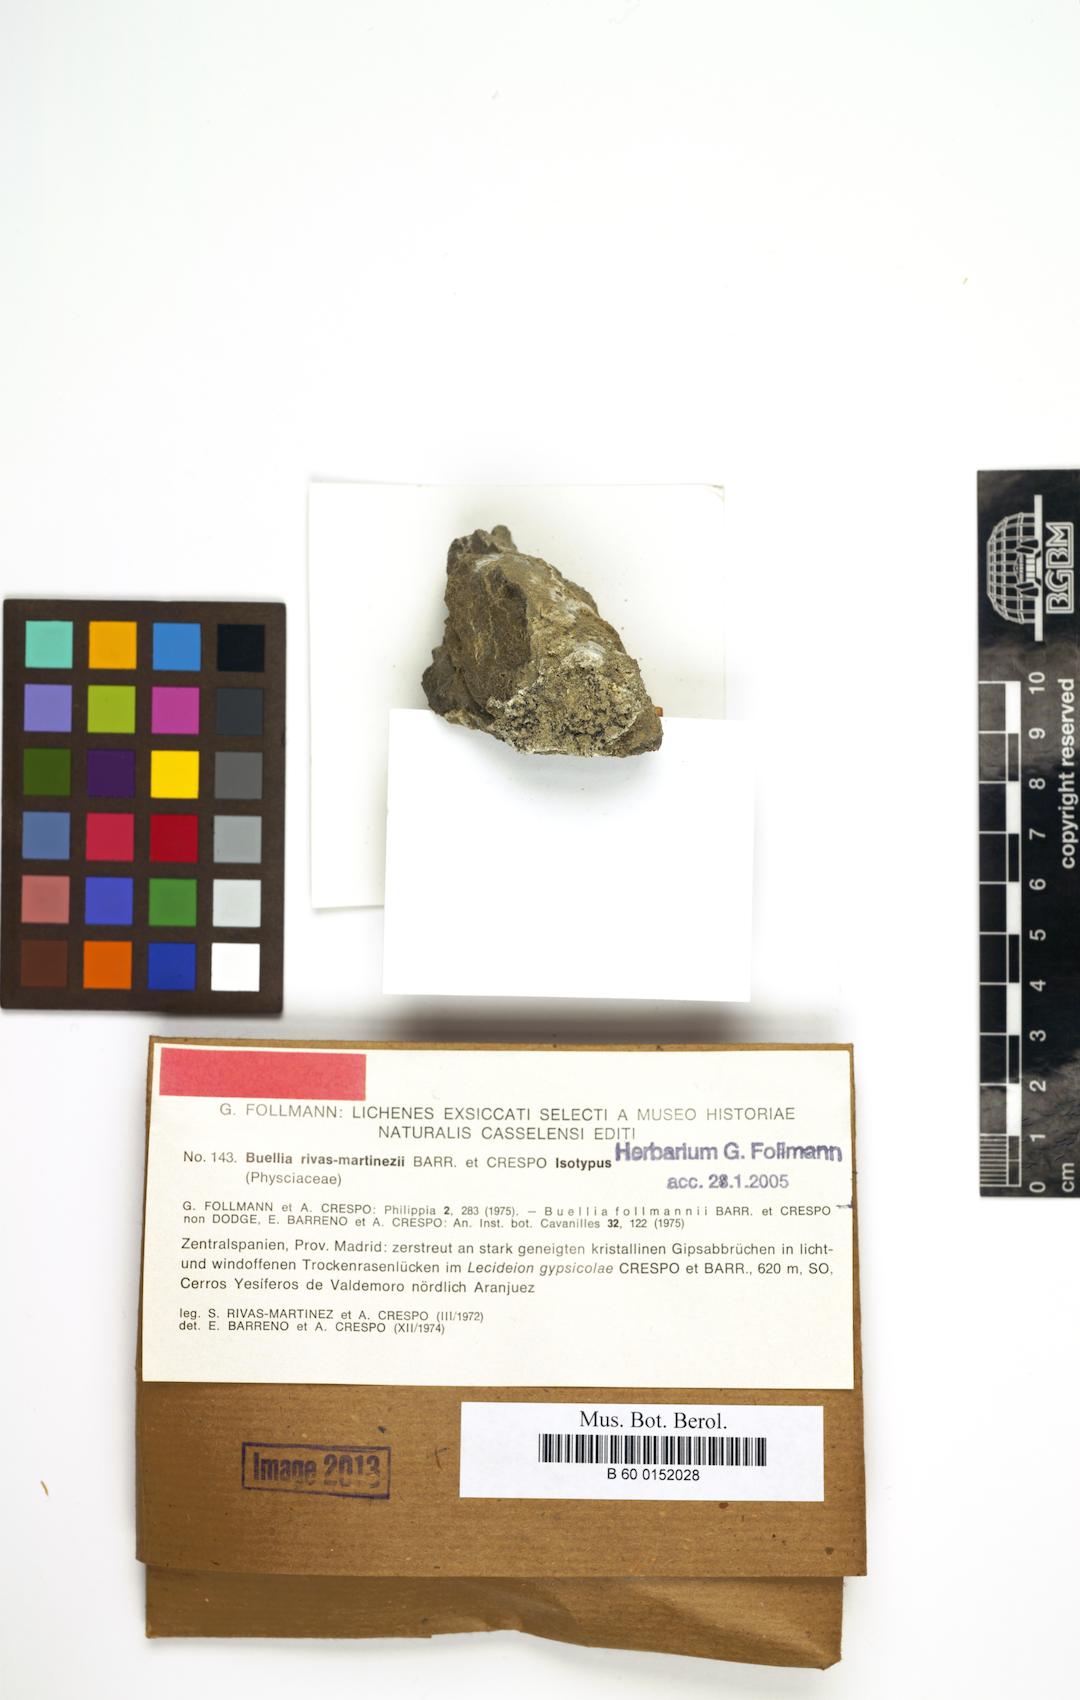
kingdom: Fungi
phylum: Ascomycota
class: Lecanoromycetes
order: Caliciales
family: Caliciaceae
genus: Diplotomma
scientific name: Diplotomma rivas-martinezii
